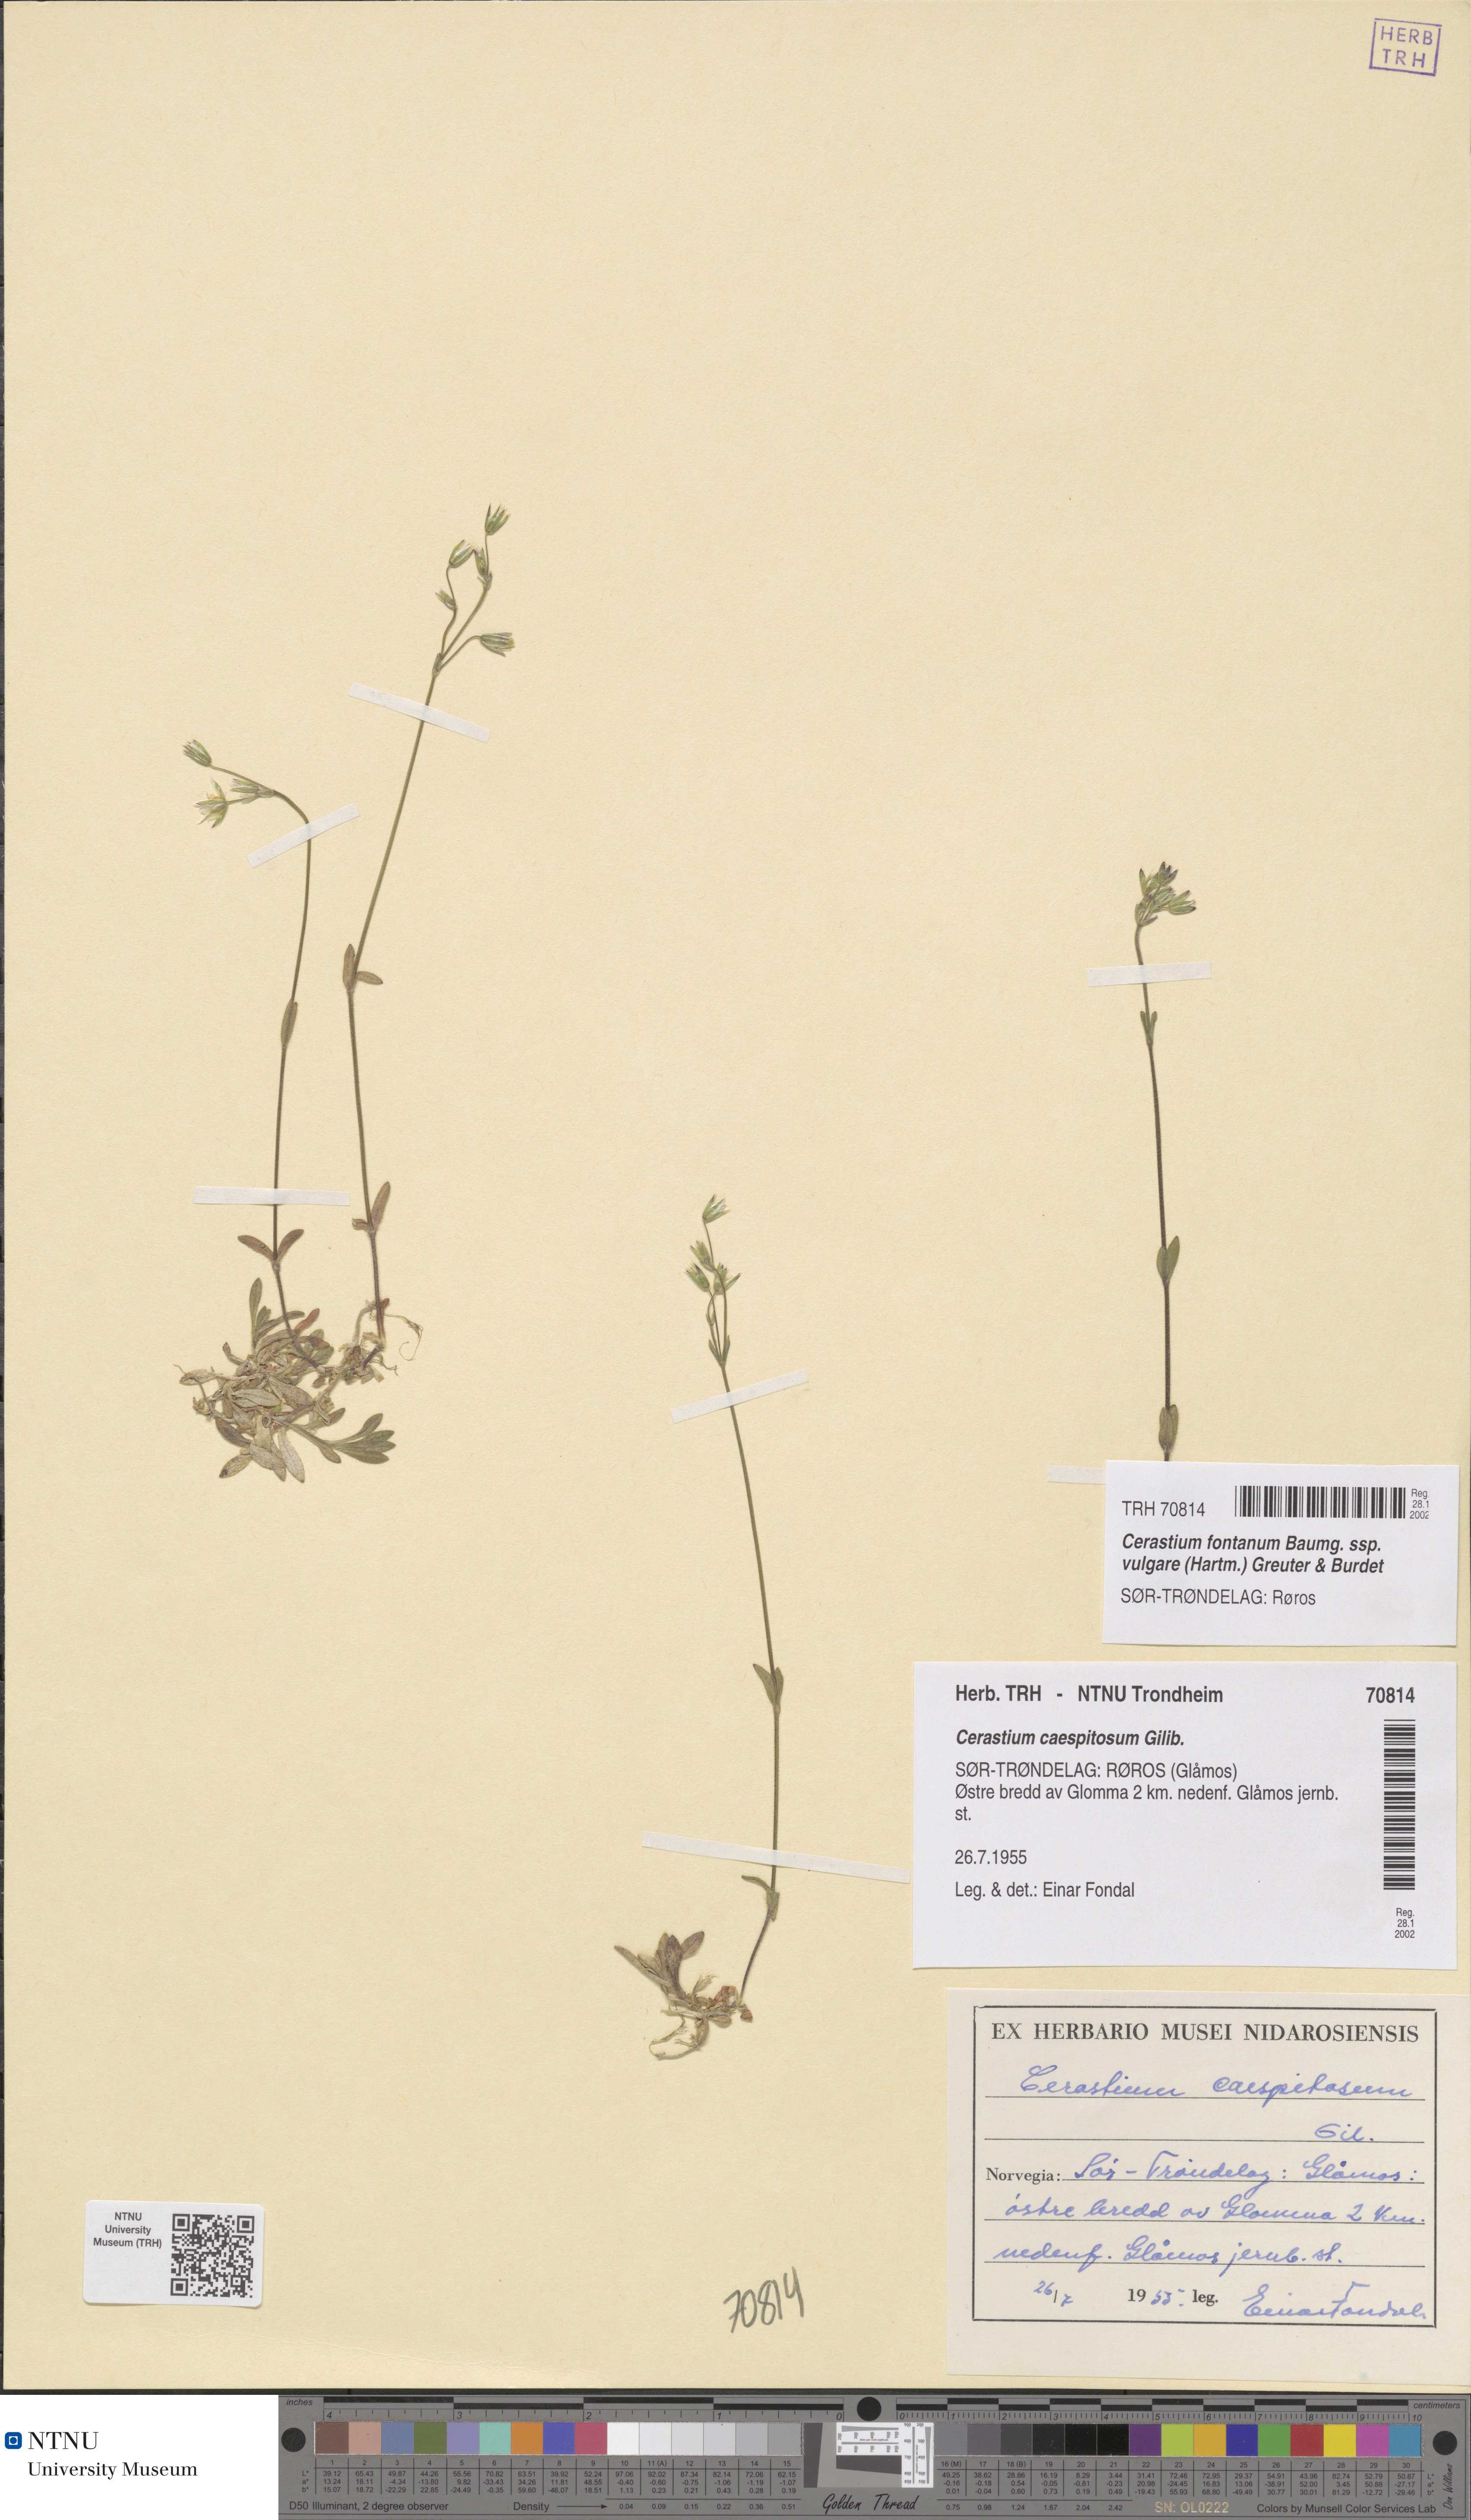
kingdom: Plantae
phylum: Tracheophyta
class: Magnoliopsida
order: Caryophyllales
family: Caryophyllaceae
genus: Cerastium
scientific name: Cerastium holosteoides
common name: Big chickweed
